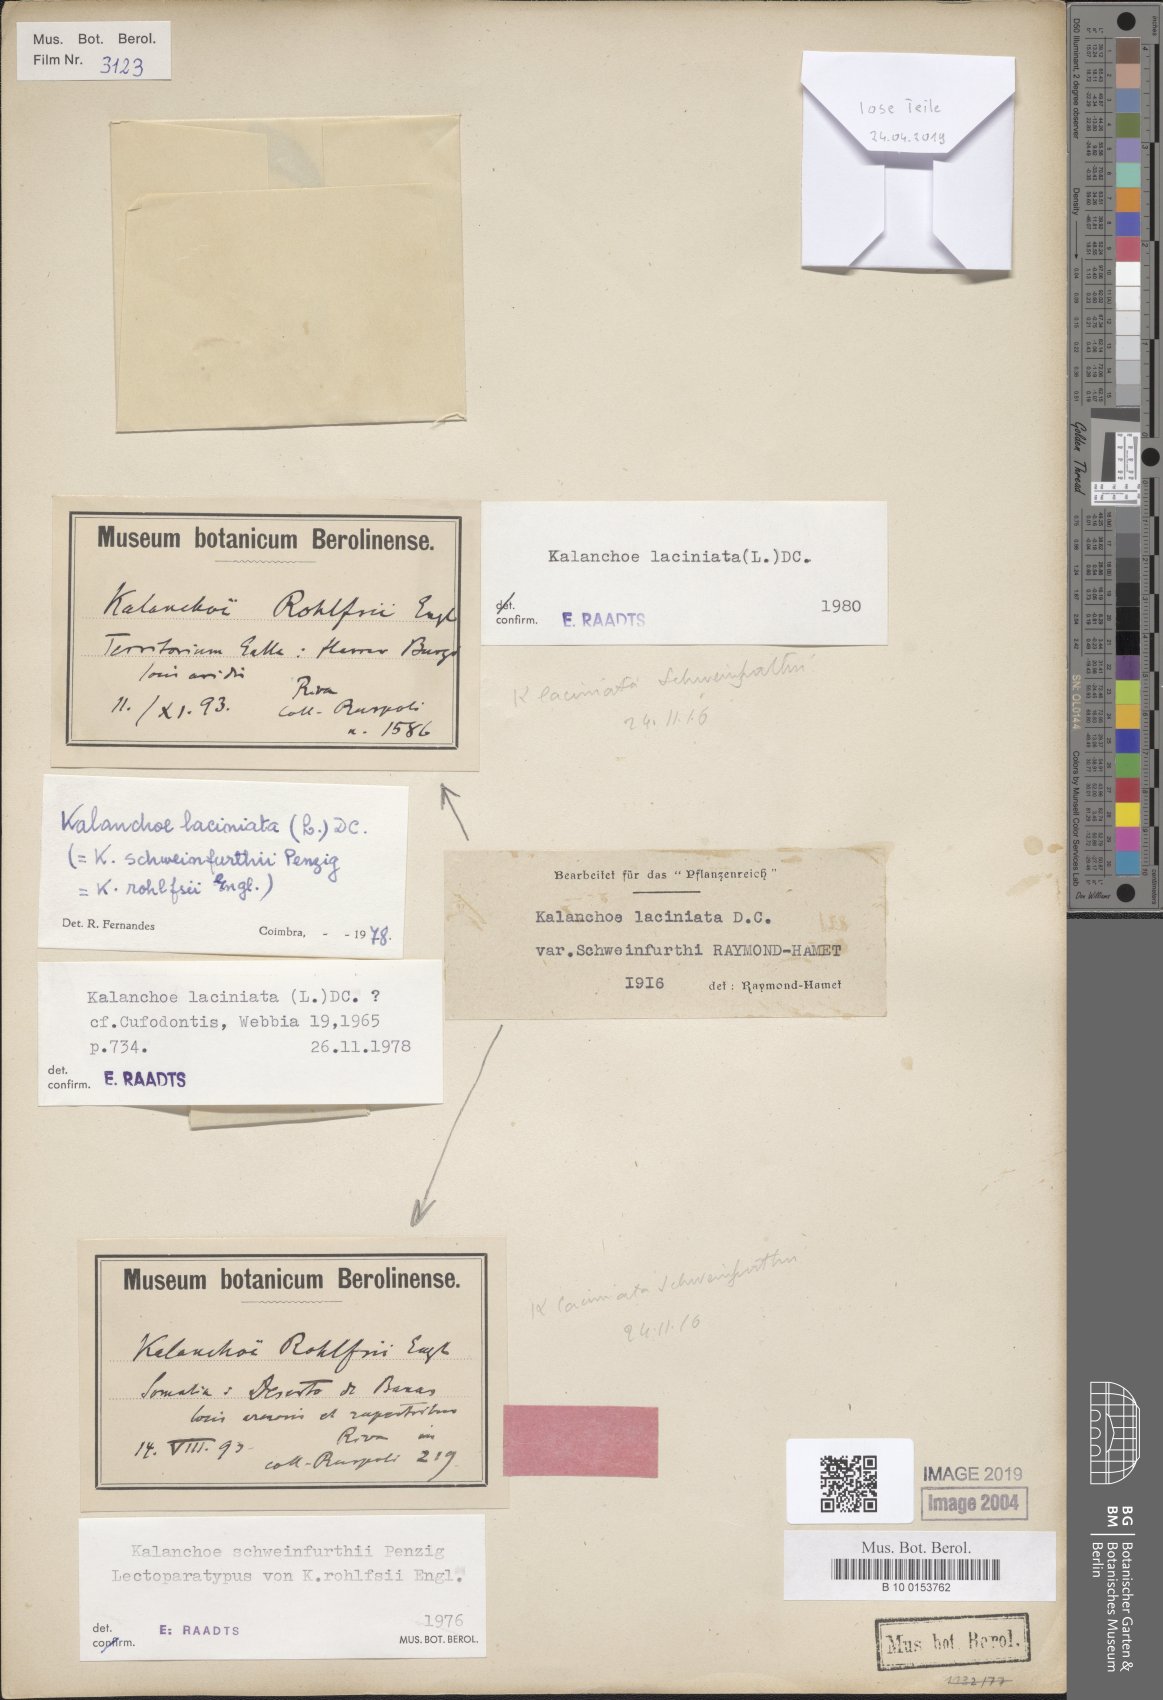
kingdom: Plantae
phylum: Tracheophyta
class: Magnoliopsida
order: Saxifragales
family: Crassulaceae
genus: Kalanchoe
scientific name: Kalanchoe laciniata
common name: Christmastree plant
